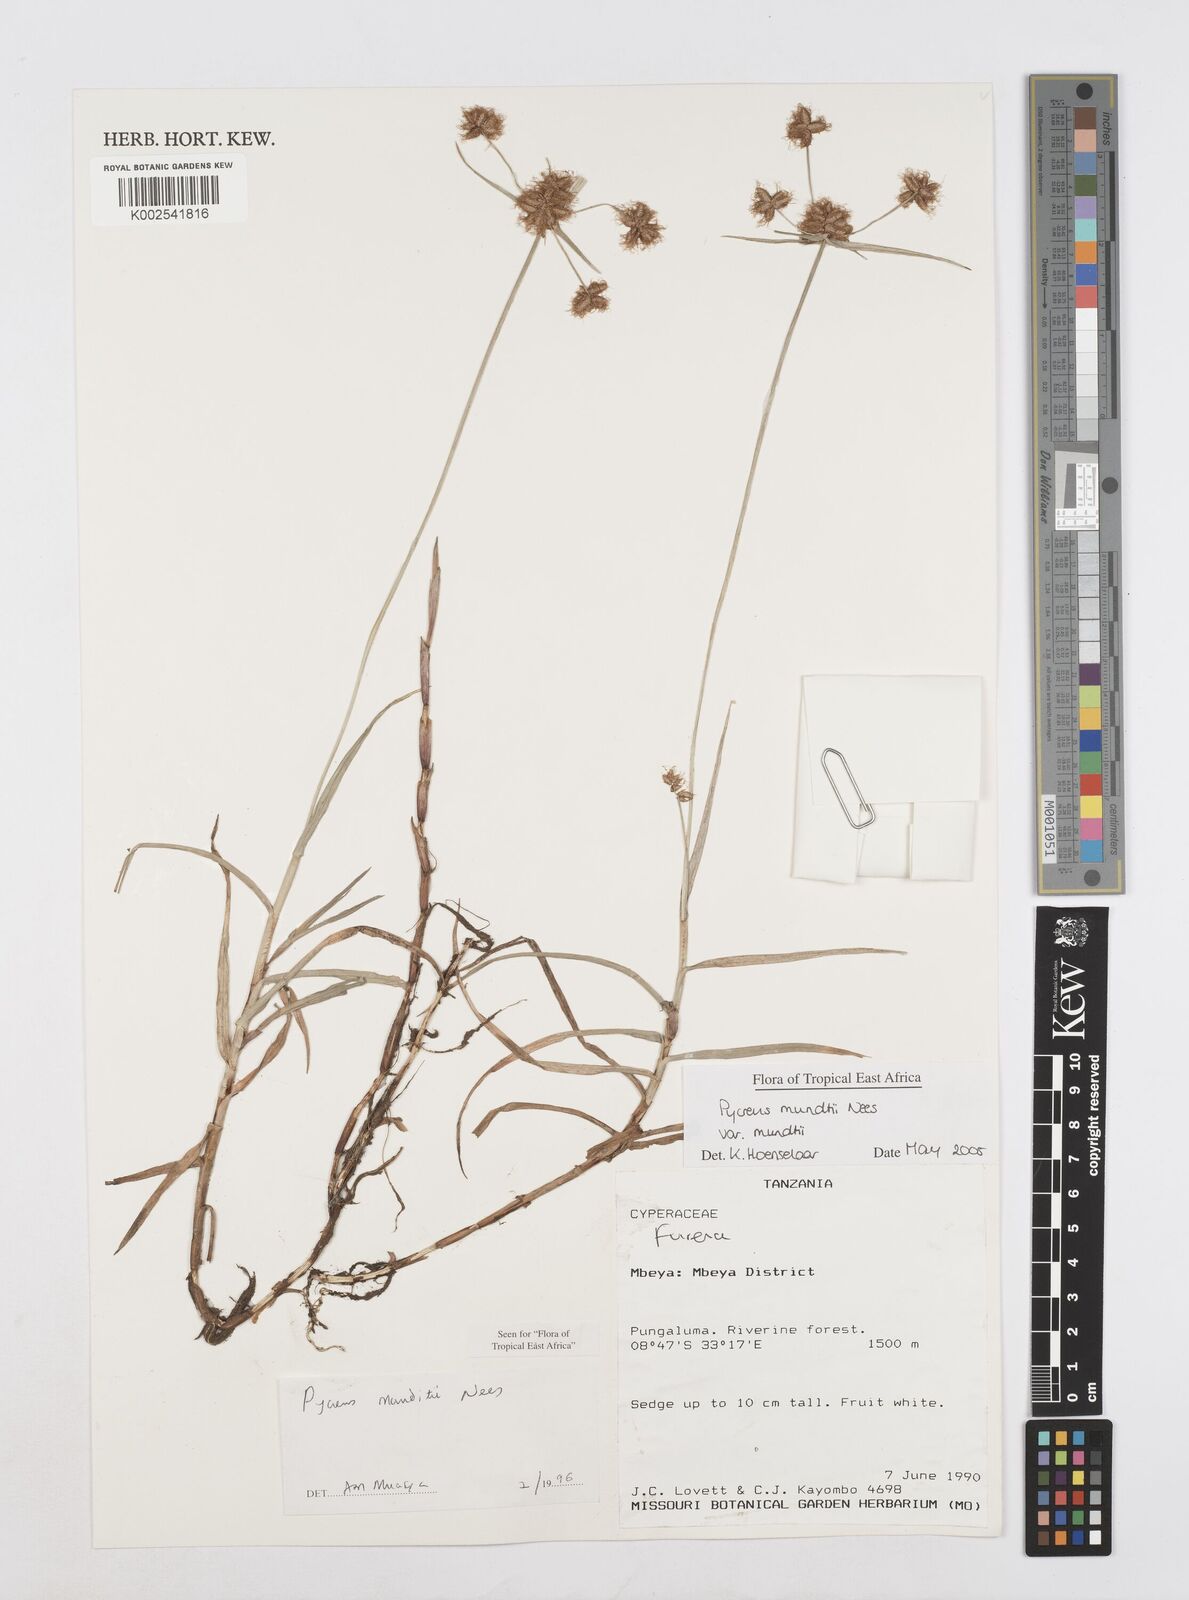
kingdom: Plantae
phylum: Tracheophyta
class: Liliopsida
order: Poales
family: Cyperaceae
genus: Cyperus
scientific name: Cyperus mundii
